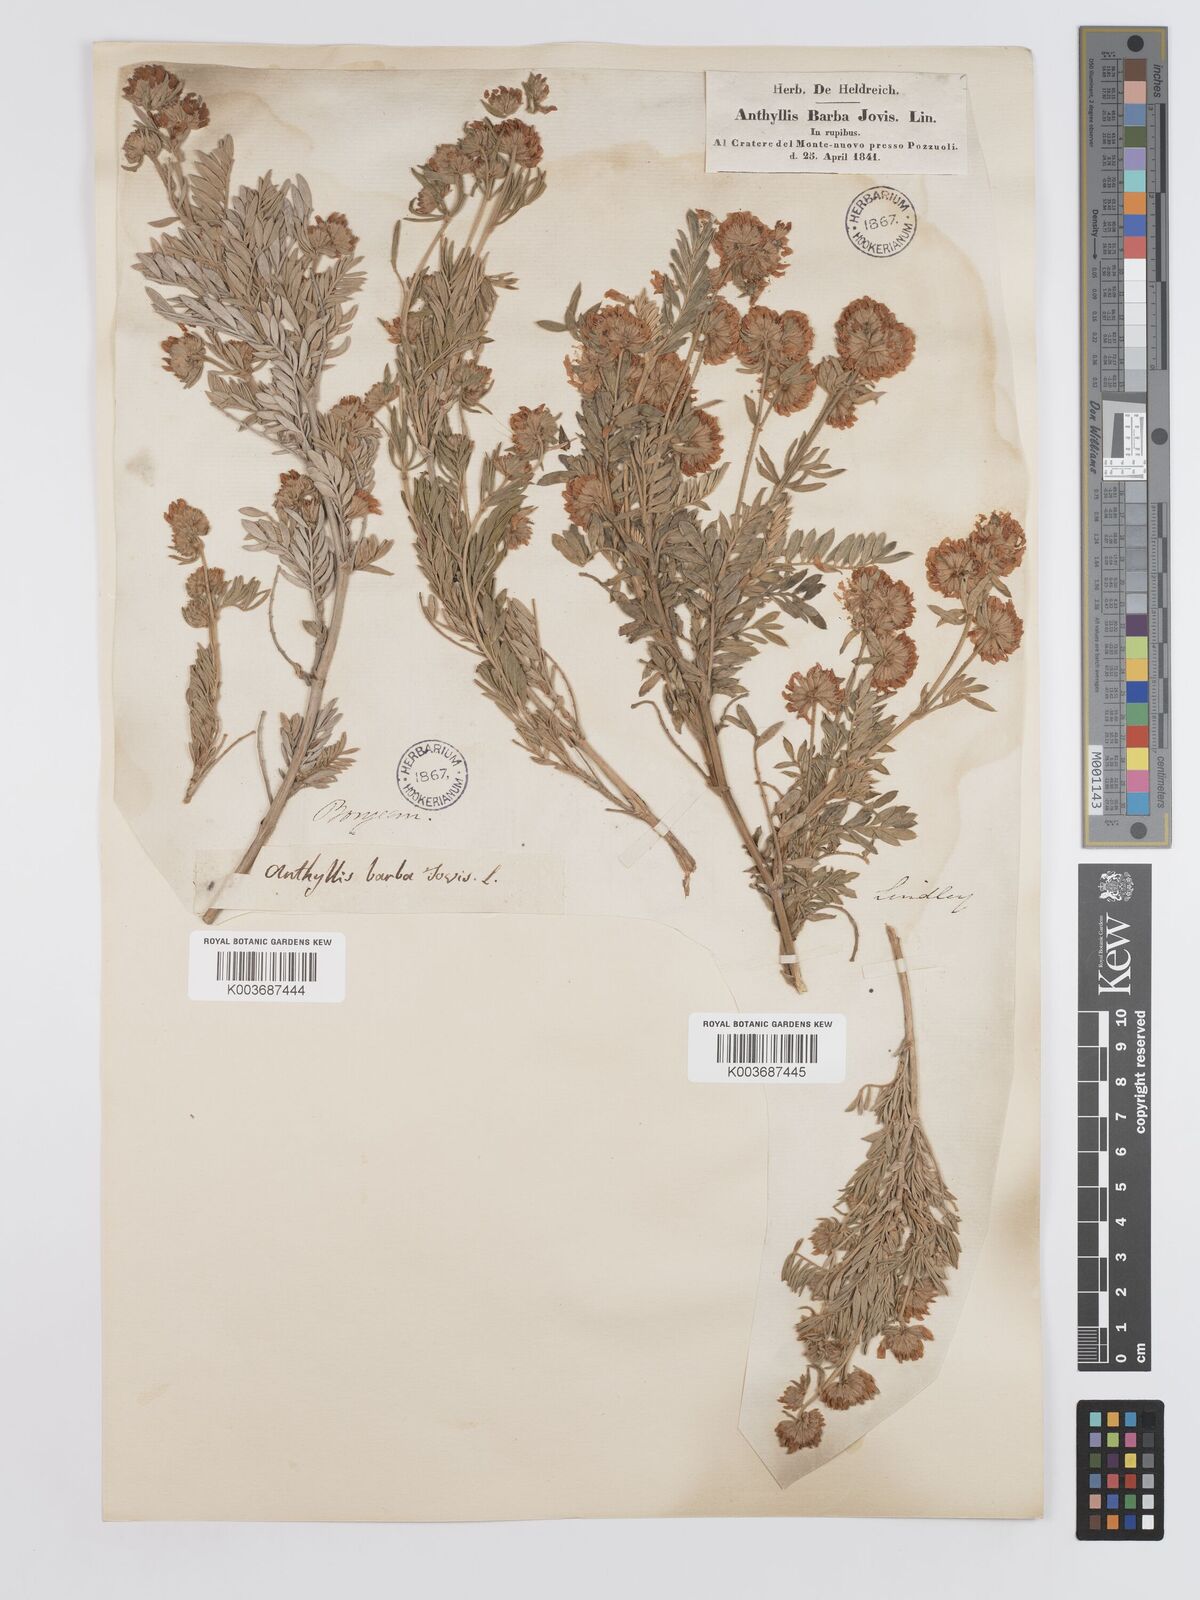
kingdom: Plantae
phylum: Tracheophyta
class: Magnoliopsida
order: Fabales
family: Fabaceae
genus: Anthyllis
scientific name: Anthyllis barba-jovis
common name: Jupiter's-beard
